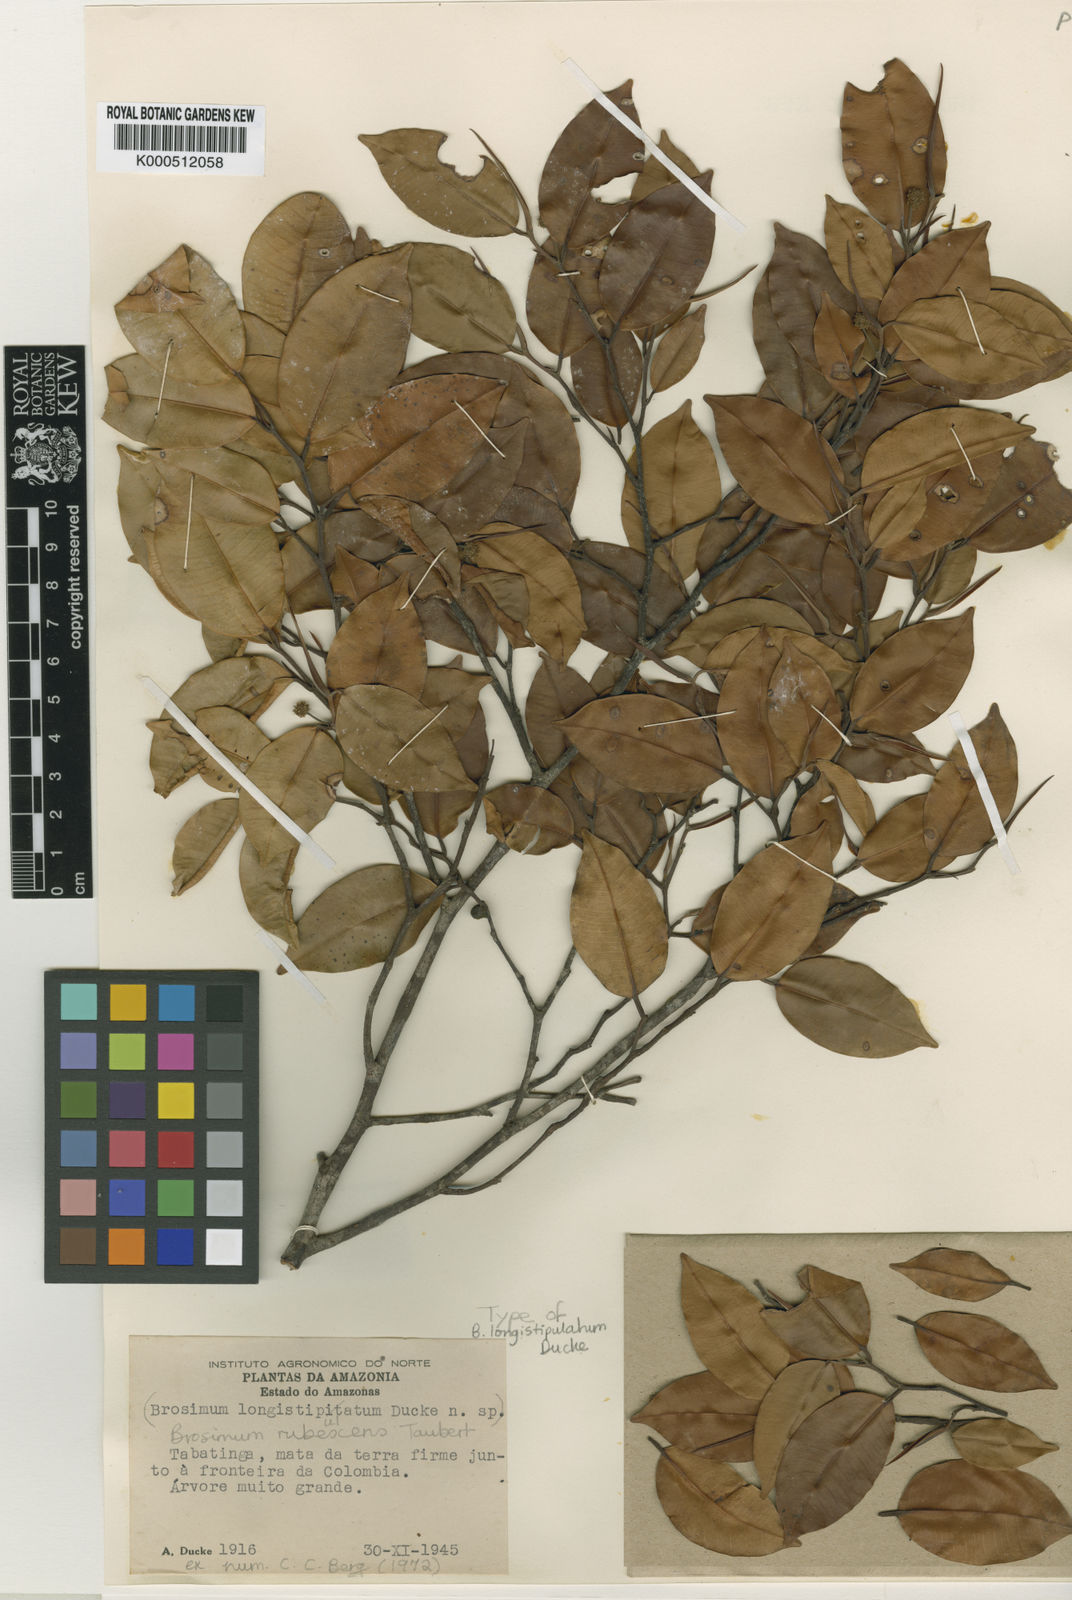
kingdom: Plantae
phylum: Tracheophyta
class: Magnoliopsida
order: Rosales
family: Moraceae
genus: Brosimum
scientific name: Brosimum rubescens
